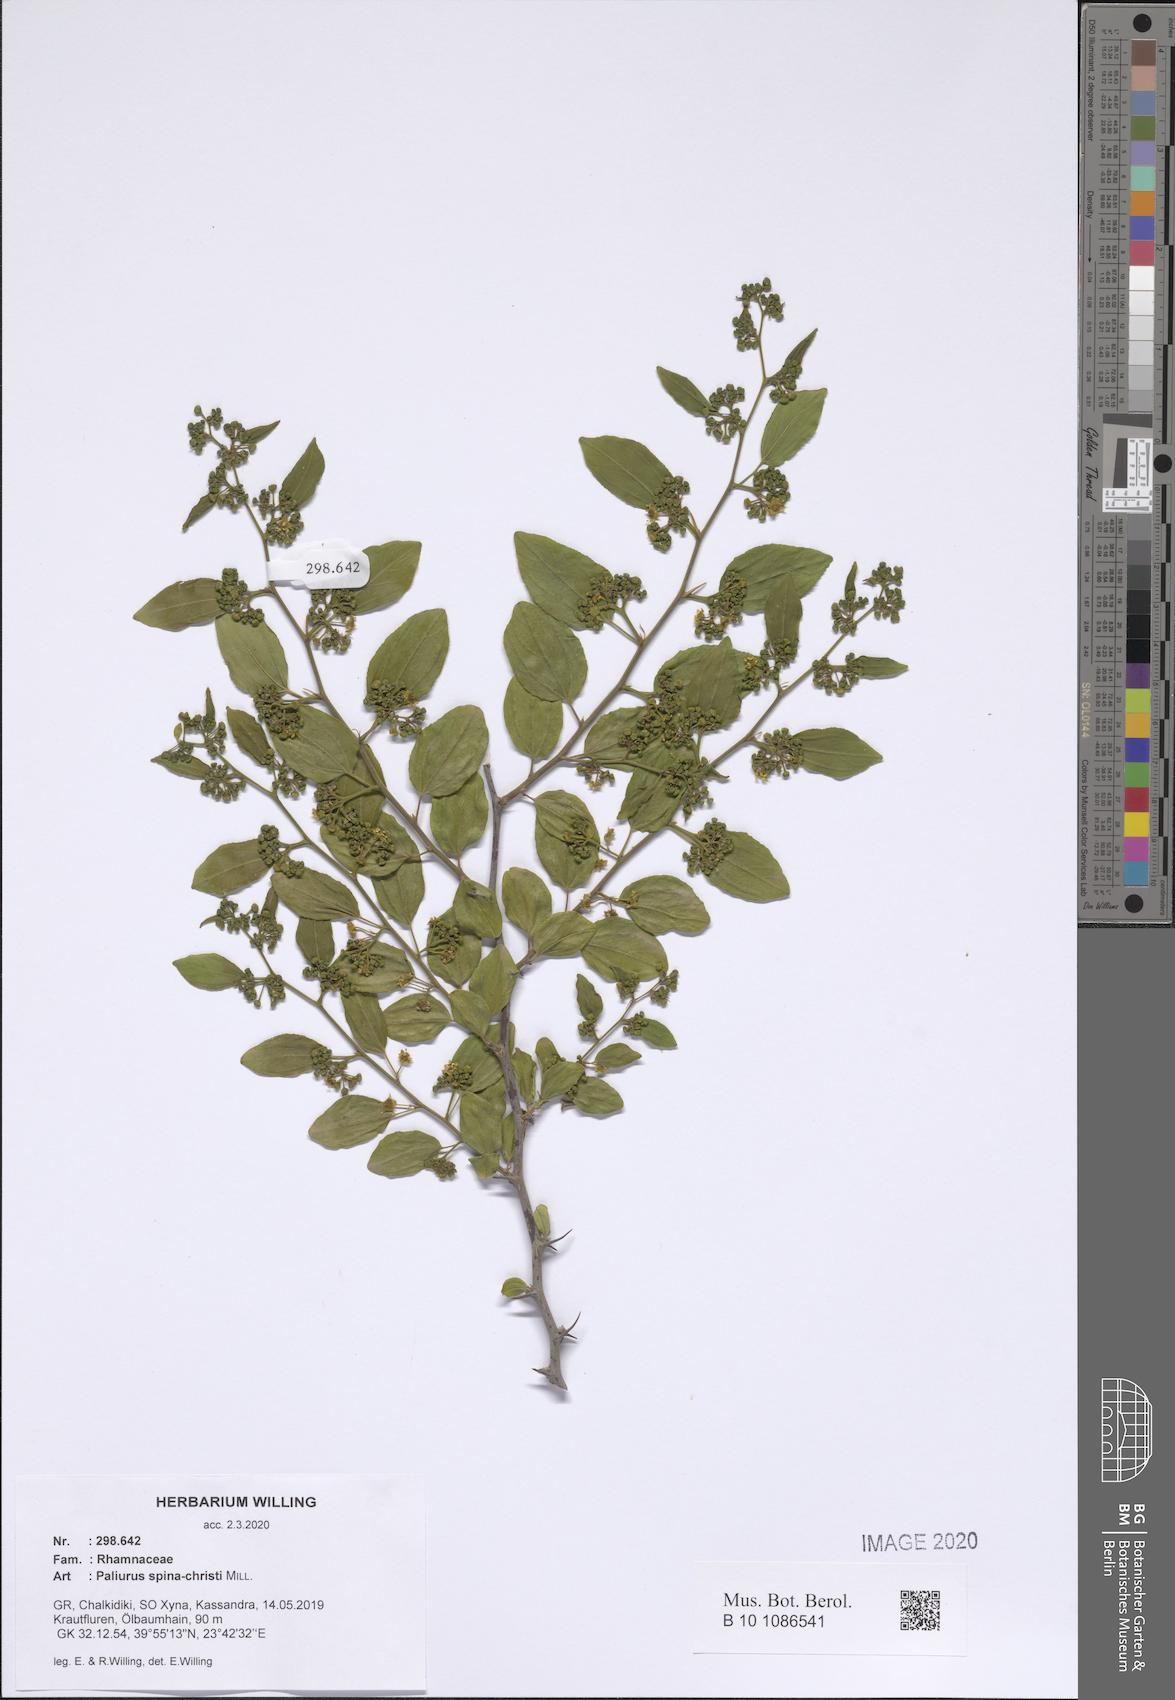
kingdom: Plantae
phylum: Tracheophyta
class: Magnoliopsida
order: Rosales
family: Rhamnaceae
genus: Paliurus
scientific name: Paliurus spina-christi
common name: Jeruselem thorn
